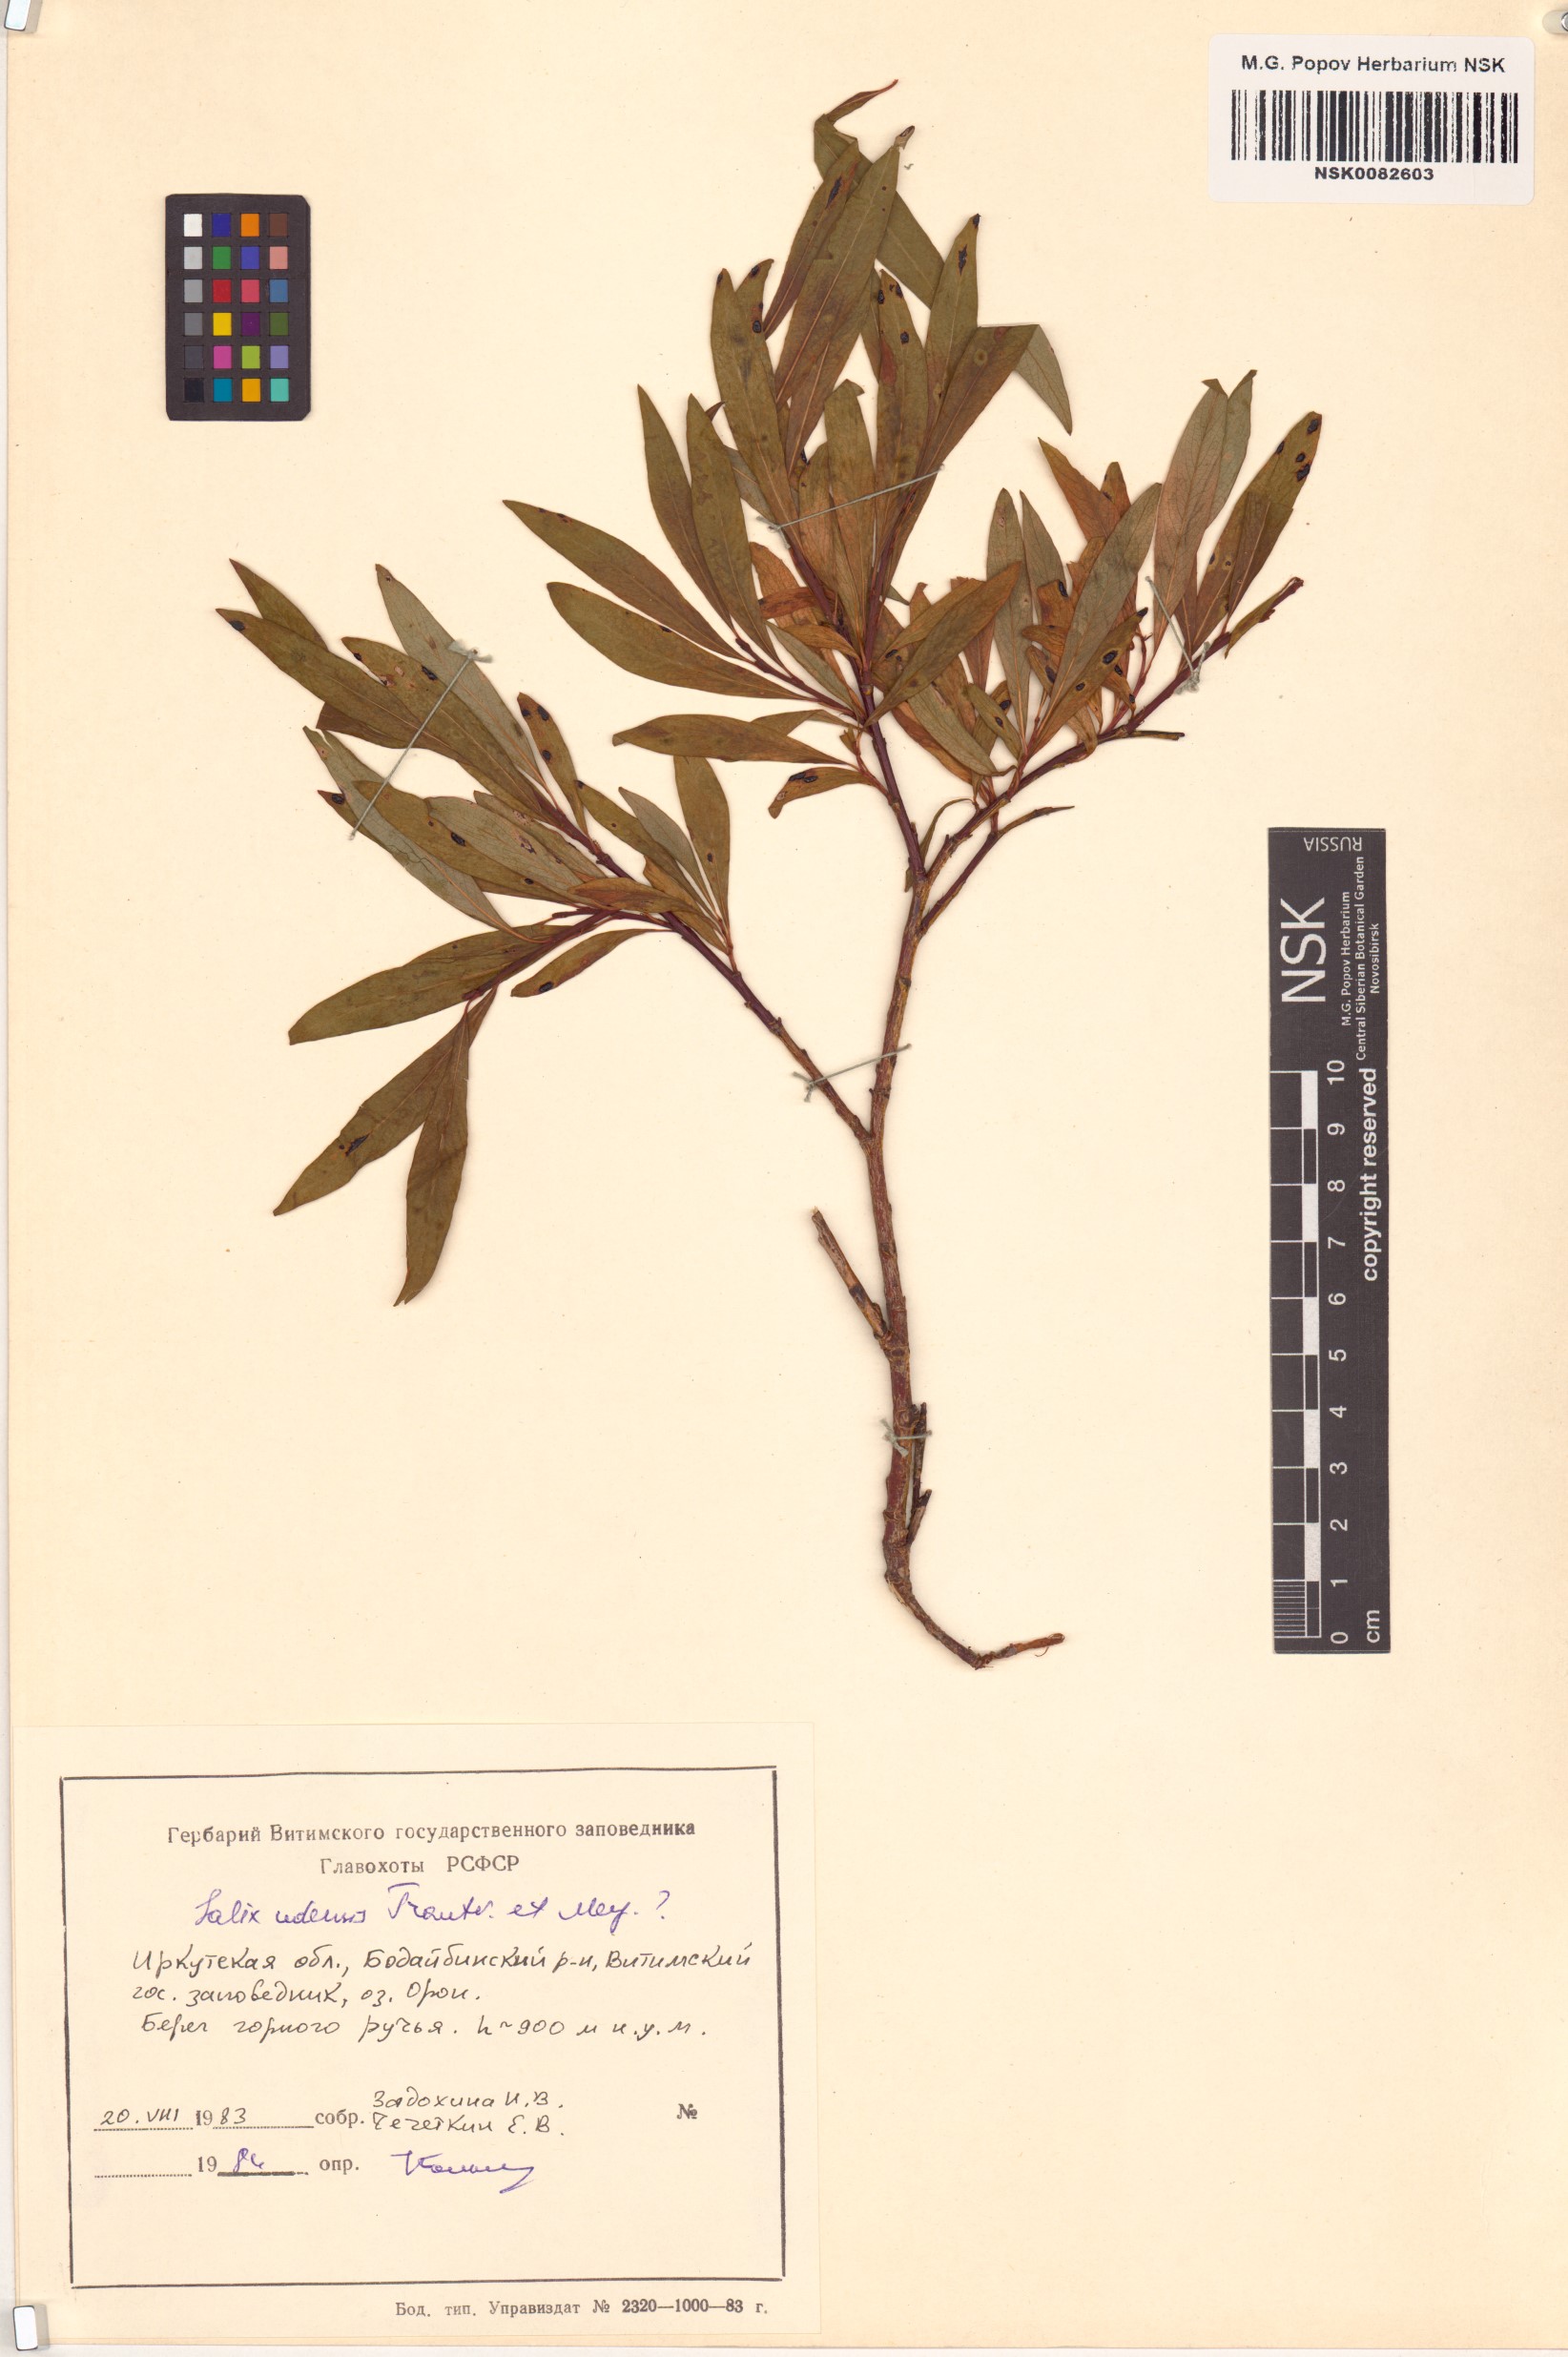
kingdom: Plantae
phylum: Tracheophyta
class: Magnoliopsida
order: Malpighiales
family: Salicaceae
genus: Salix
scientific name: Salix udensis
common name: Sachalin willow
